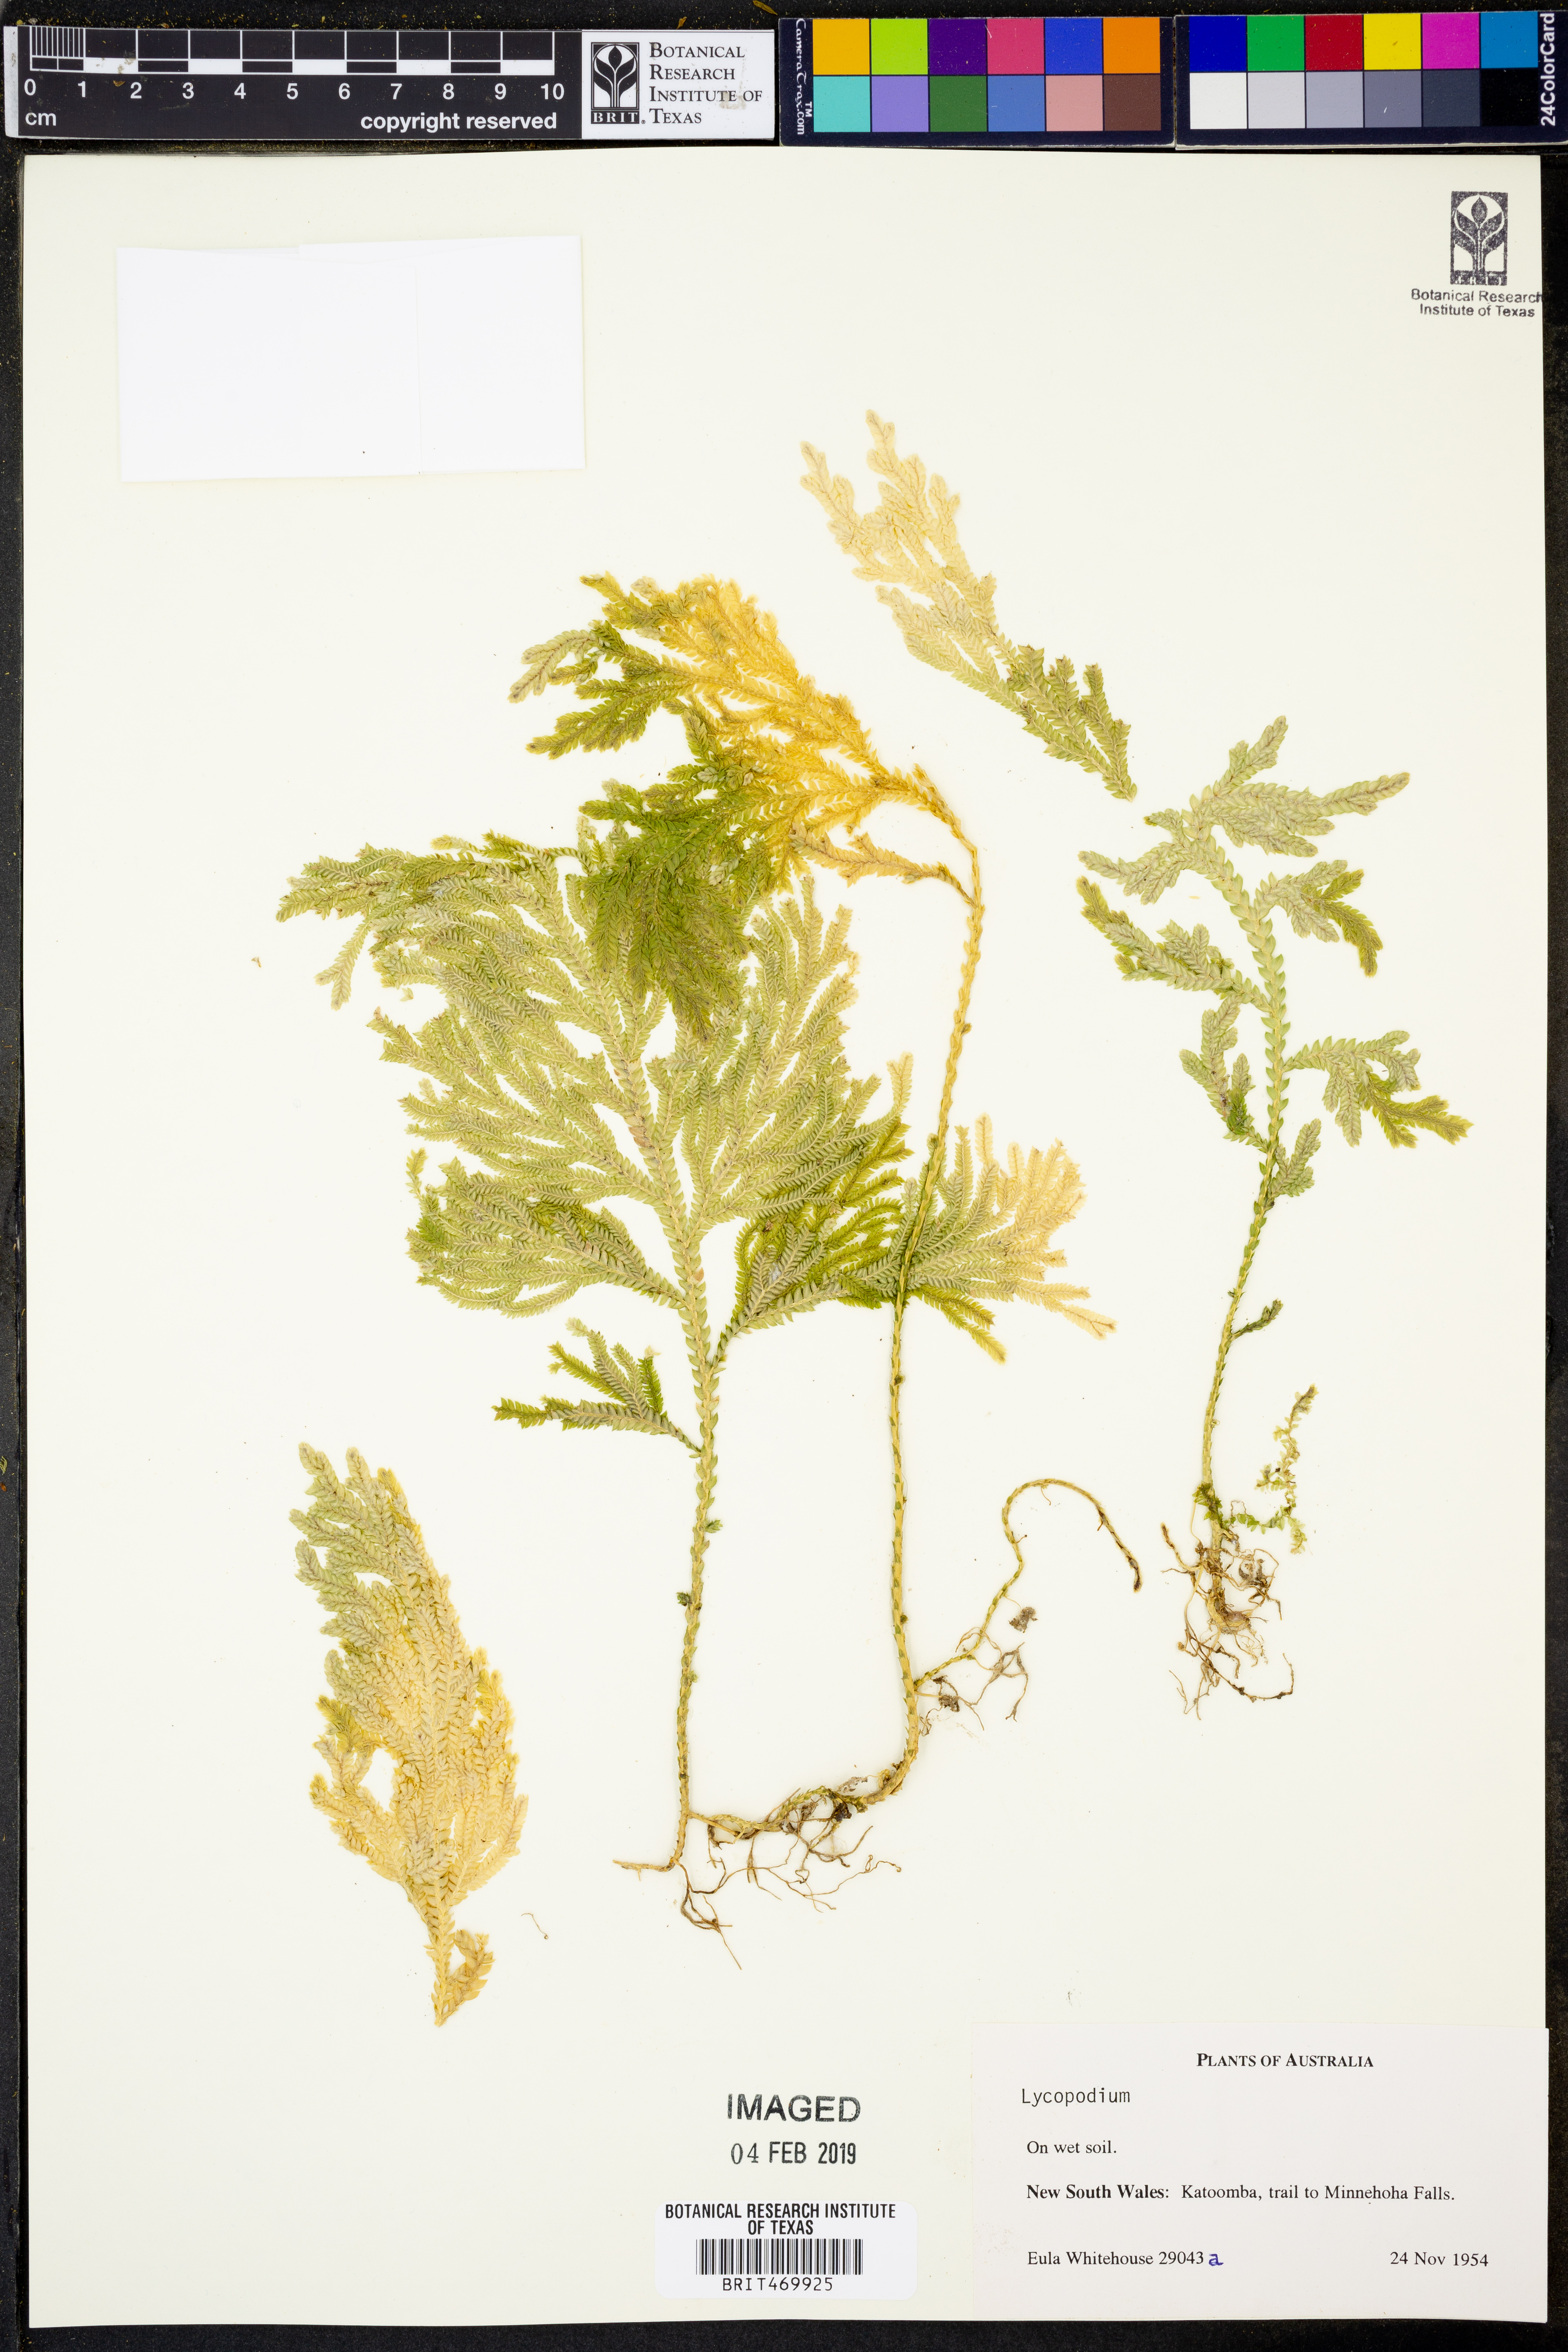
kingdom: Plantae
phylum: Tracheophyta
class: Lycopodiopsida
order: Lycopodiales
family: Lycopodiaceae
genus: Lycopodium
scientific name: Lycopodium
